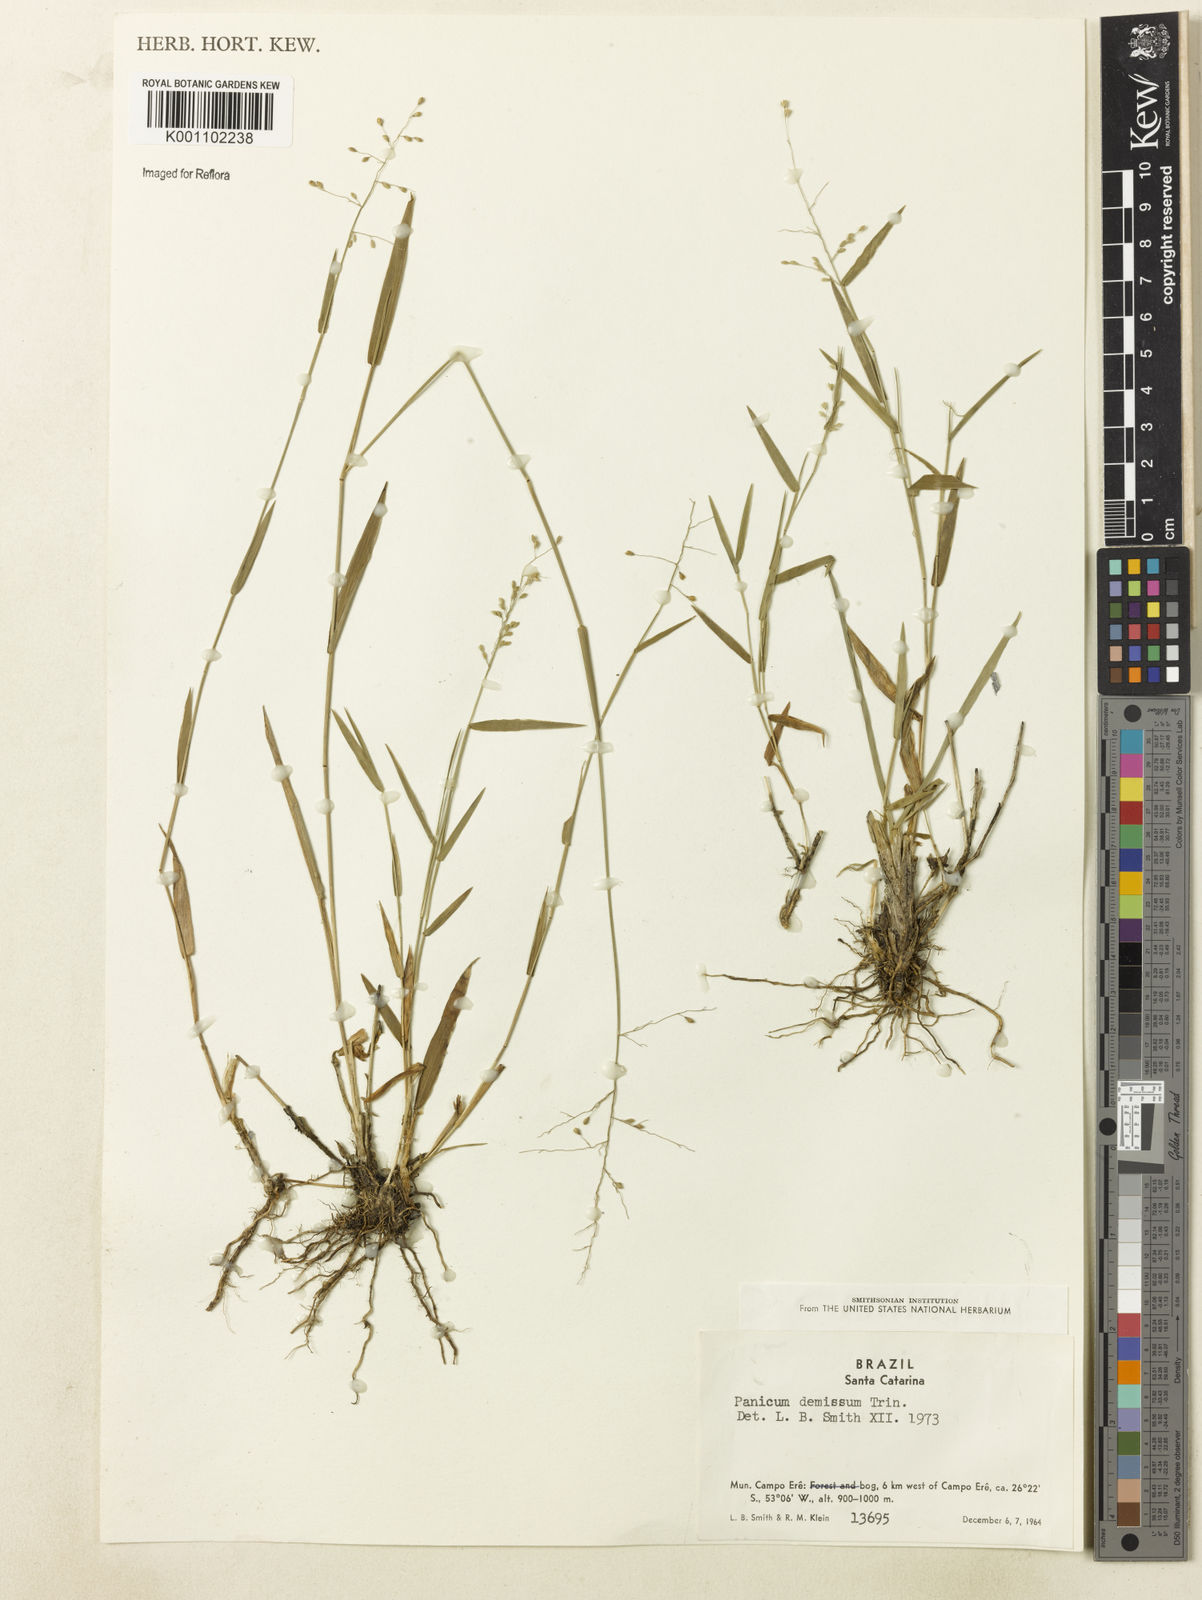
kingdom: Plantae
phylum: Tracheophyta
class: Liliopsida
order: Poales
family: Poaceae
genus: Dichanthelium
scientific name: Dichanthelium sabulorum
